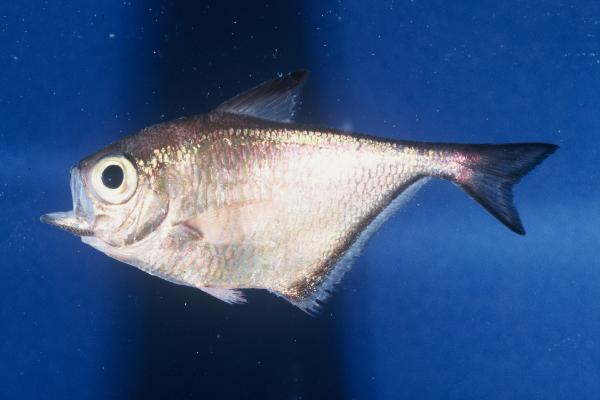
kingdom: Animalia
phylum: Chordata
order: Perciformes
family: Pempheridae
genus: Pempheris
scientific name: Pempheris connelli
